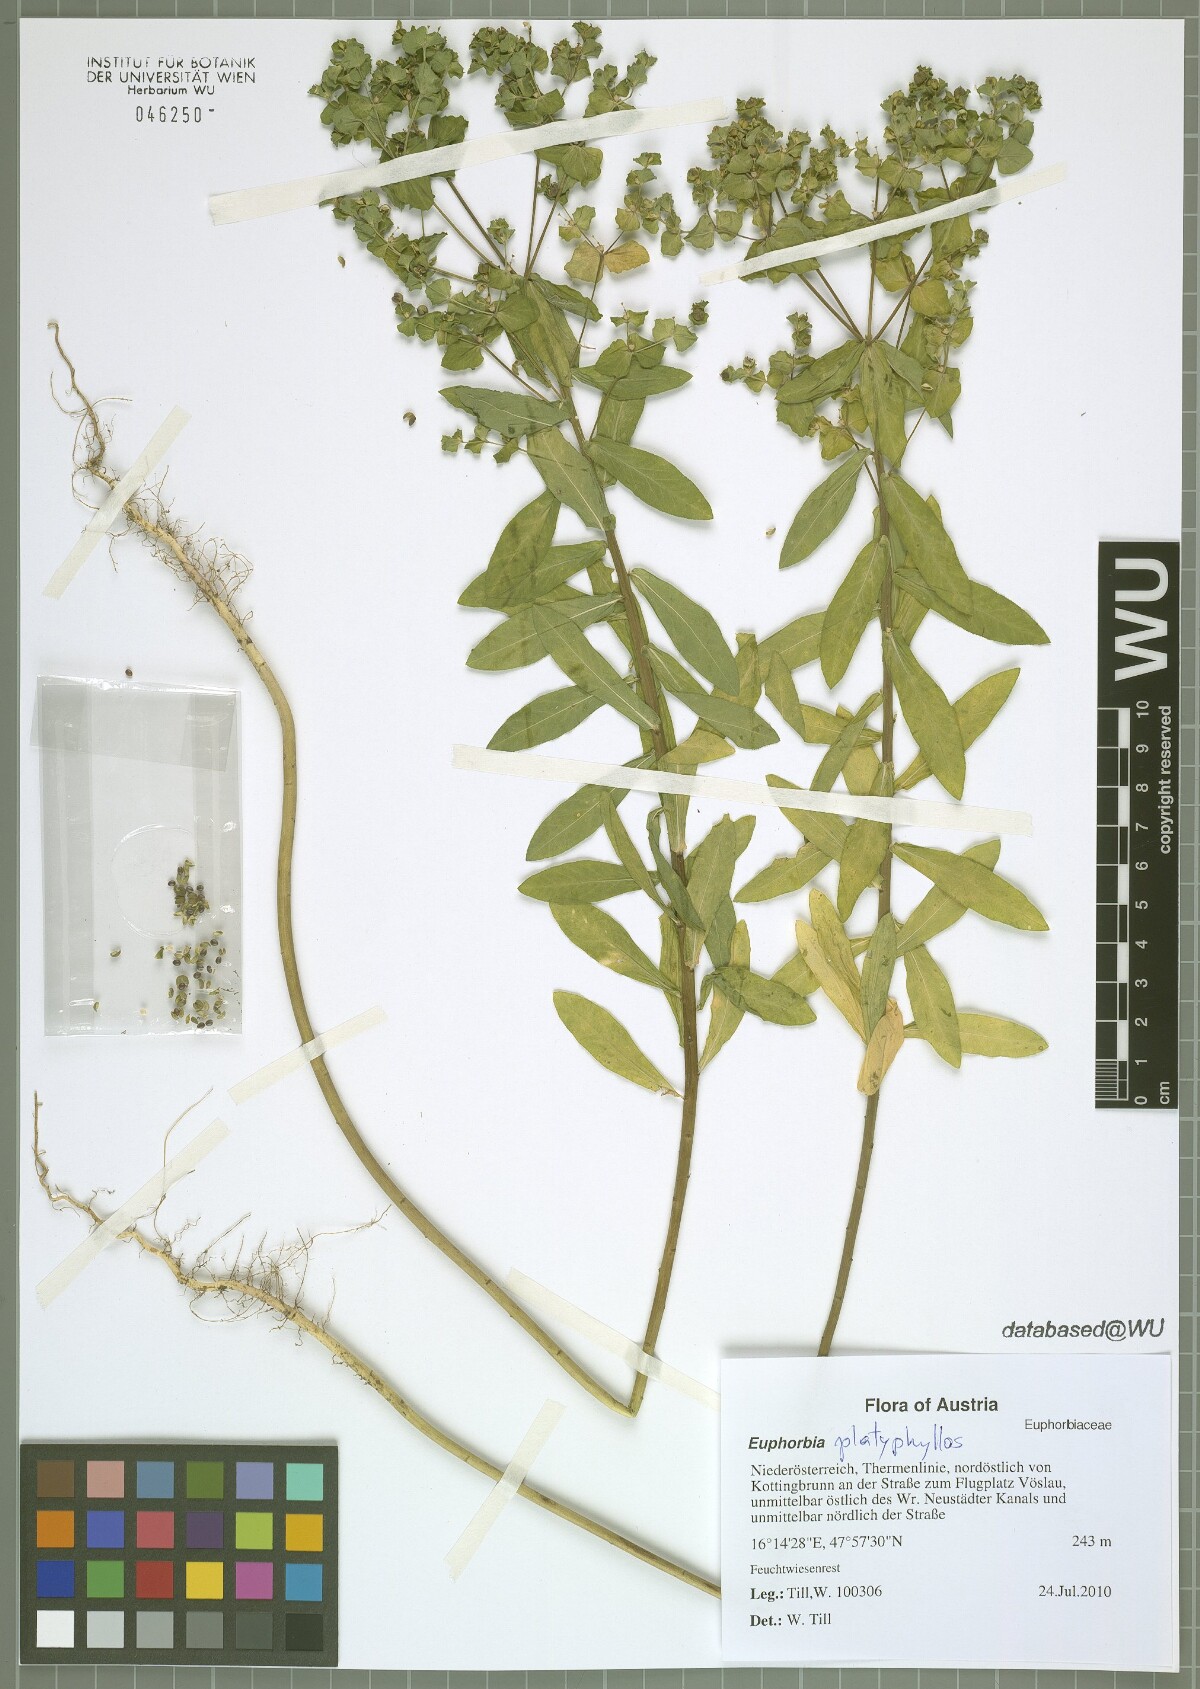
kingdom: Plantae
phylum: Tracheophyta
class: Magnoliopsida
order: Malpighiales
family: Euphorbiaceae
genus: Euphorbia
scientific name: Euphorbia platyphyllos
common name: Broad-leaved spurge
